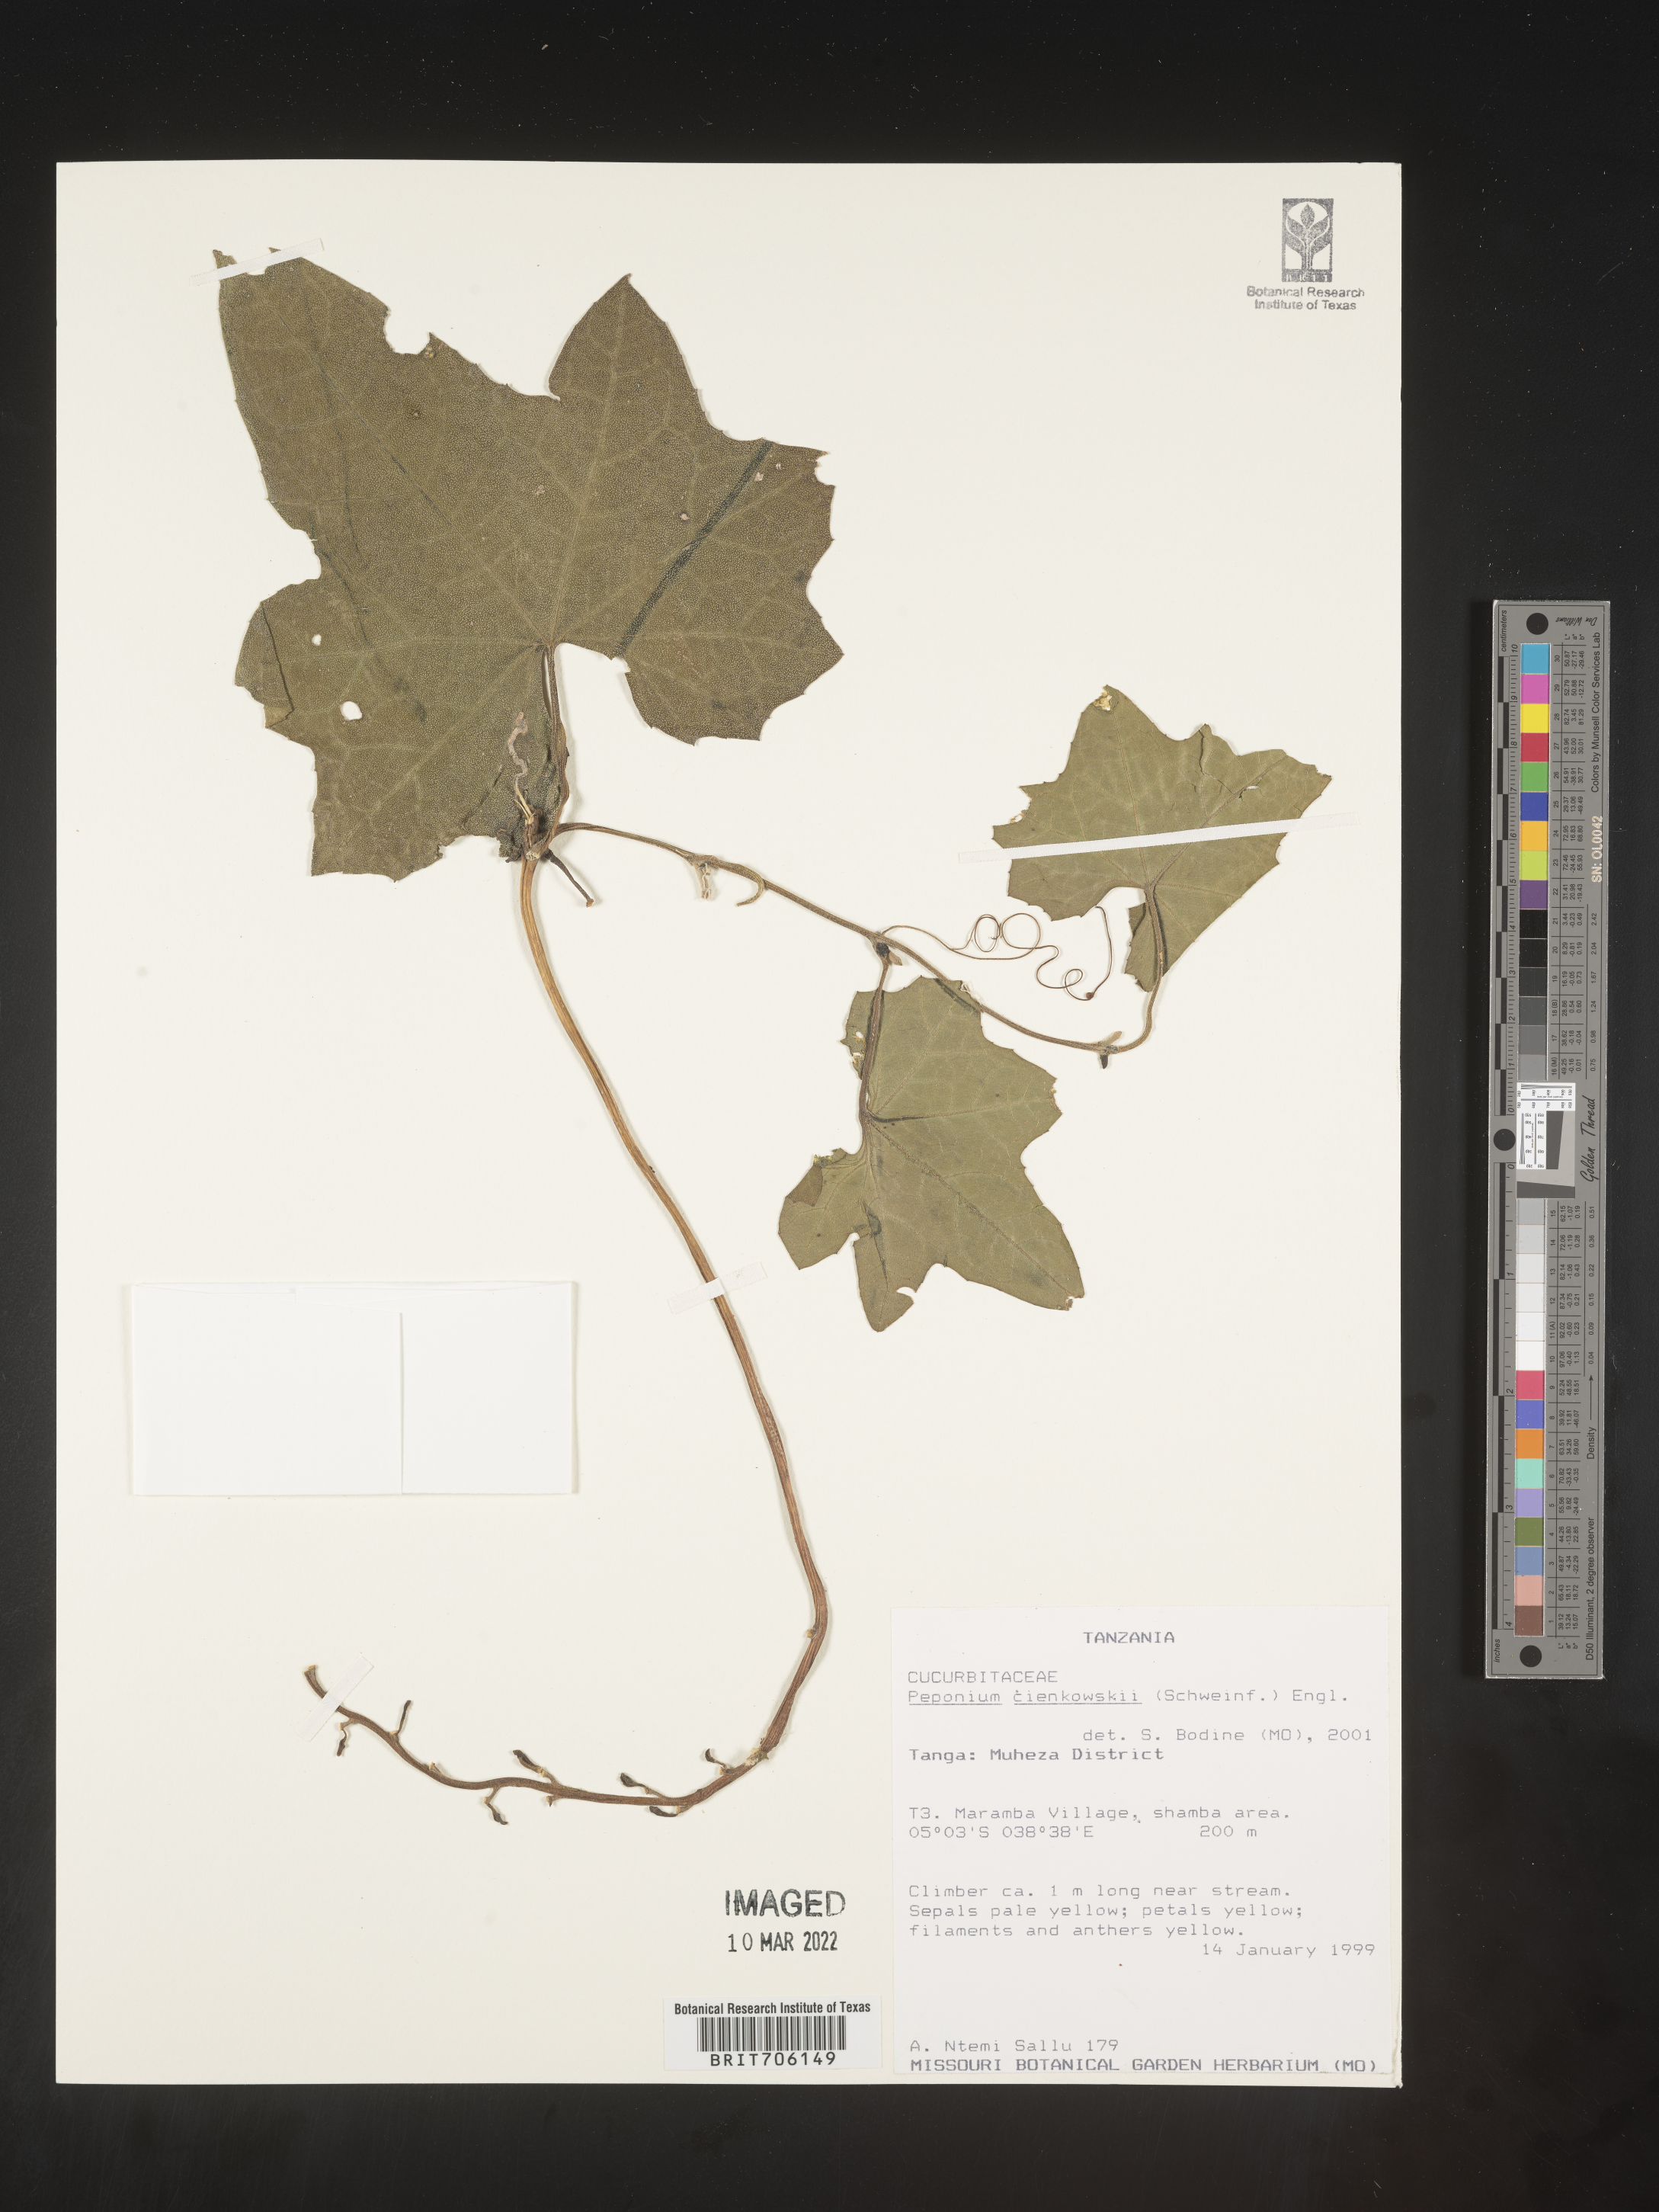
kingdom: Plantae
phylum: Tracheophyta
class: Magnoliopsida
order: Cucurbitales
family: Cucurbitaceae
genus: Peponium
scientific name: Peponium
